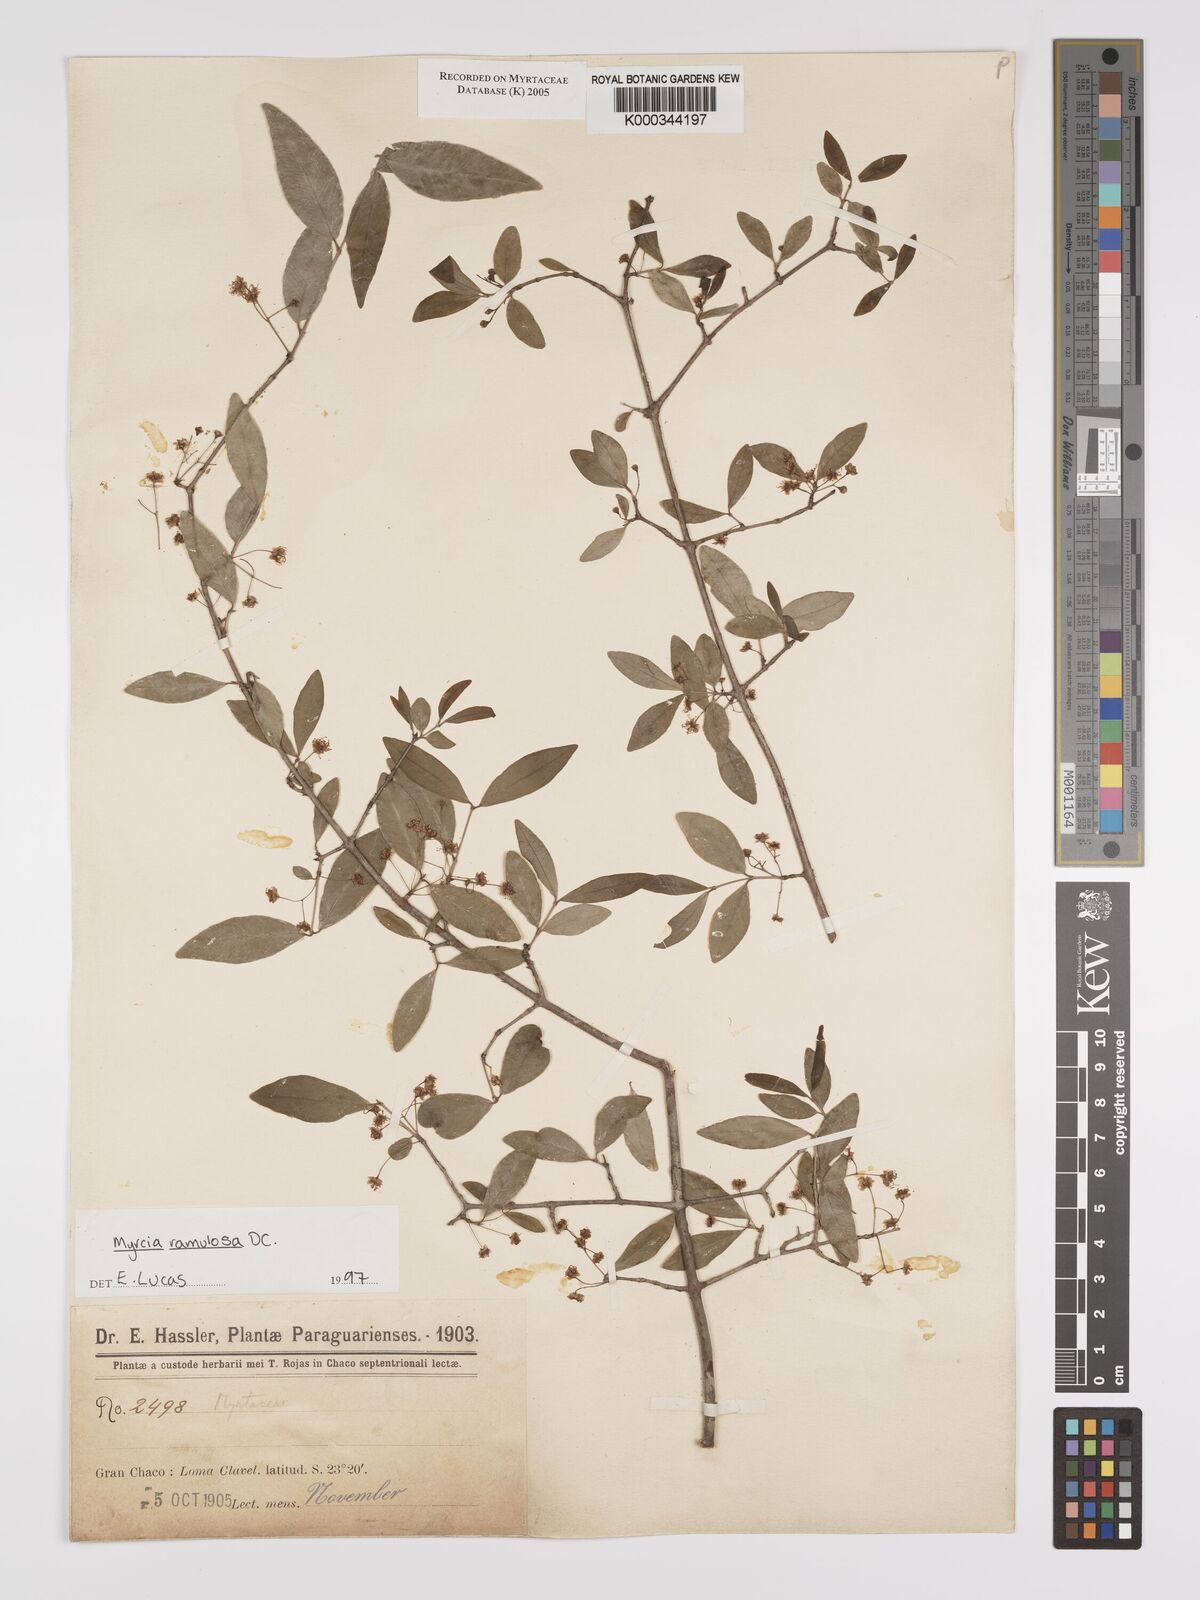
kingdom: Plantae
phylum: Tracheophyta
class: Magnoliopsida
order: Myrtales
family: Myrtaceae
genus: Myrcia
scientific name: Myrcia selloi
